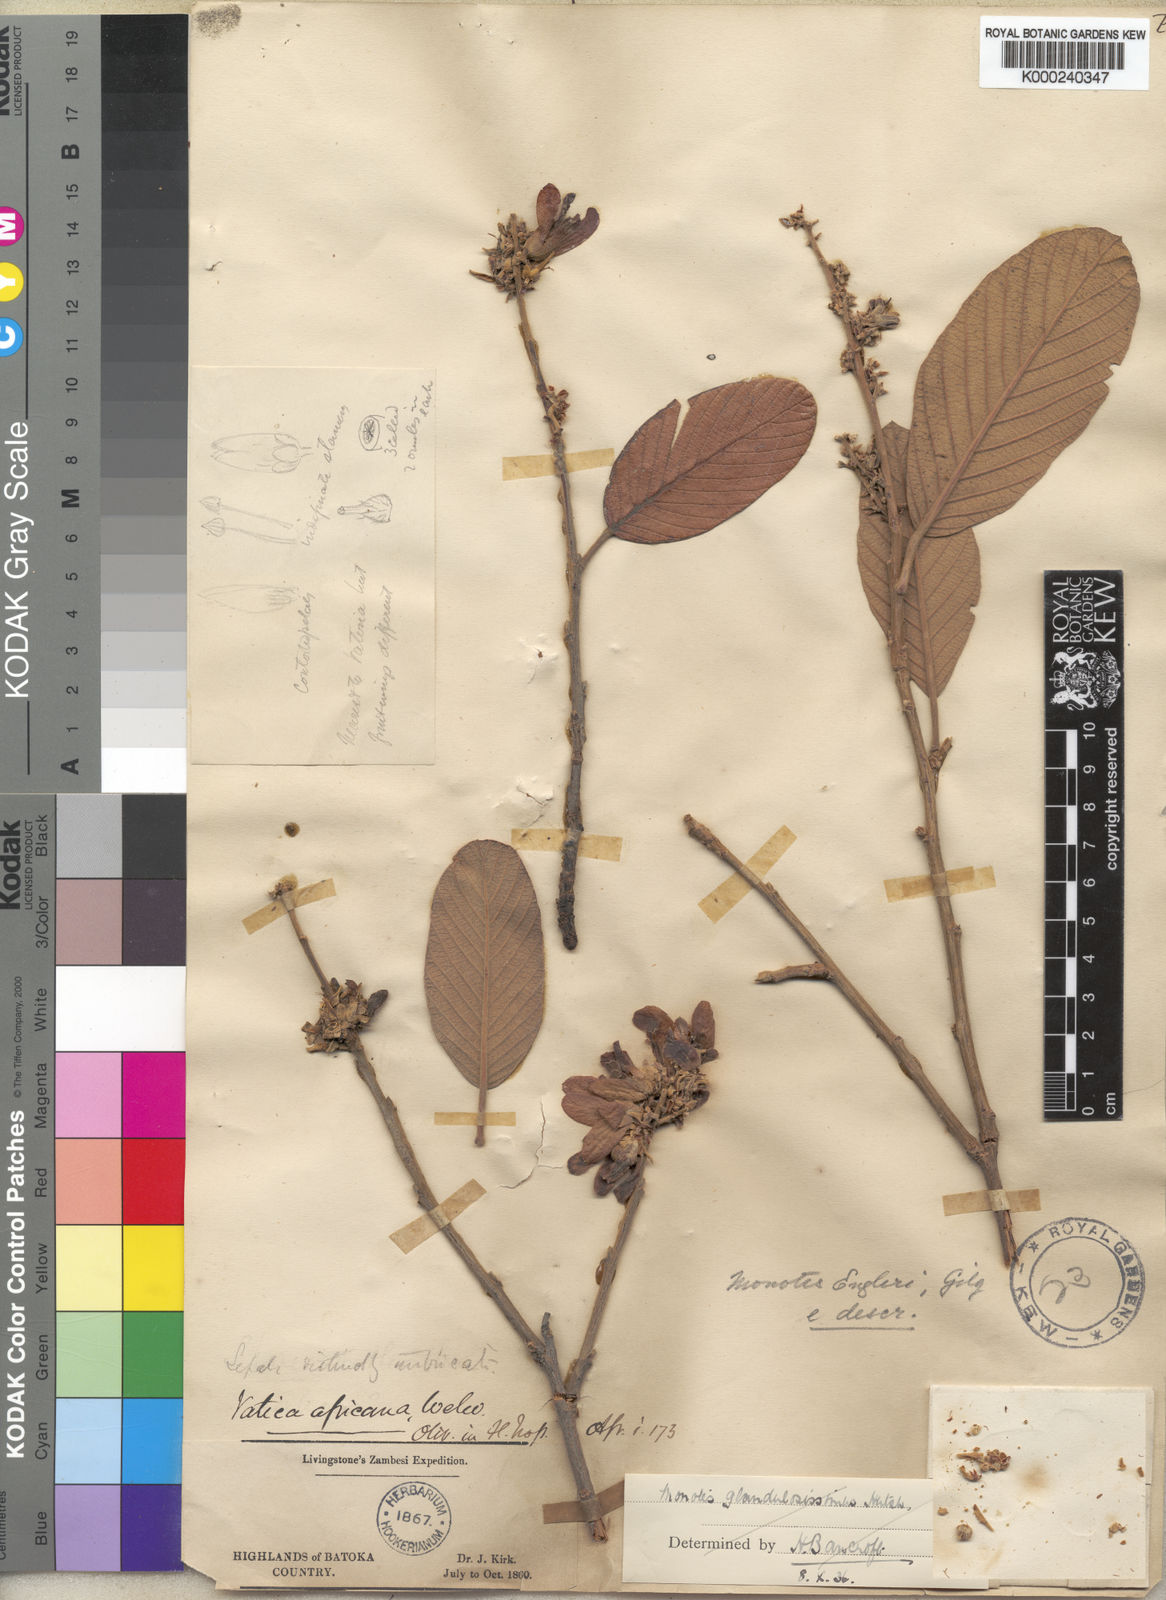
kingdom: Plantae
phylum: Tracheophyta
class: Magnoliopsida
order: Malvales
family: Dipterocarpaceae
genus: Monotes
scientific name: Monotes katangensis
